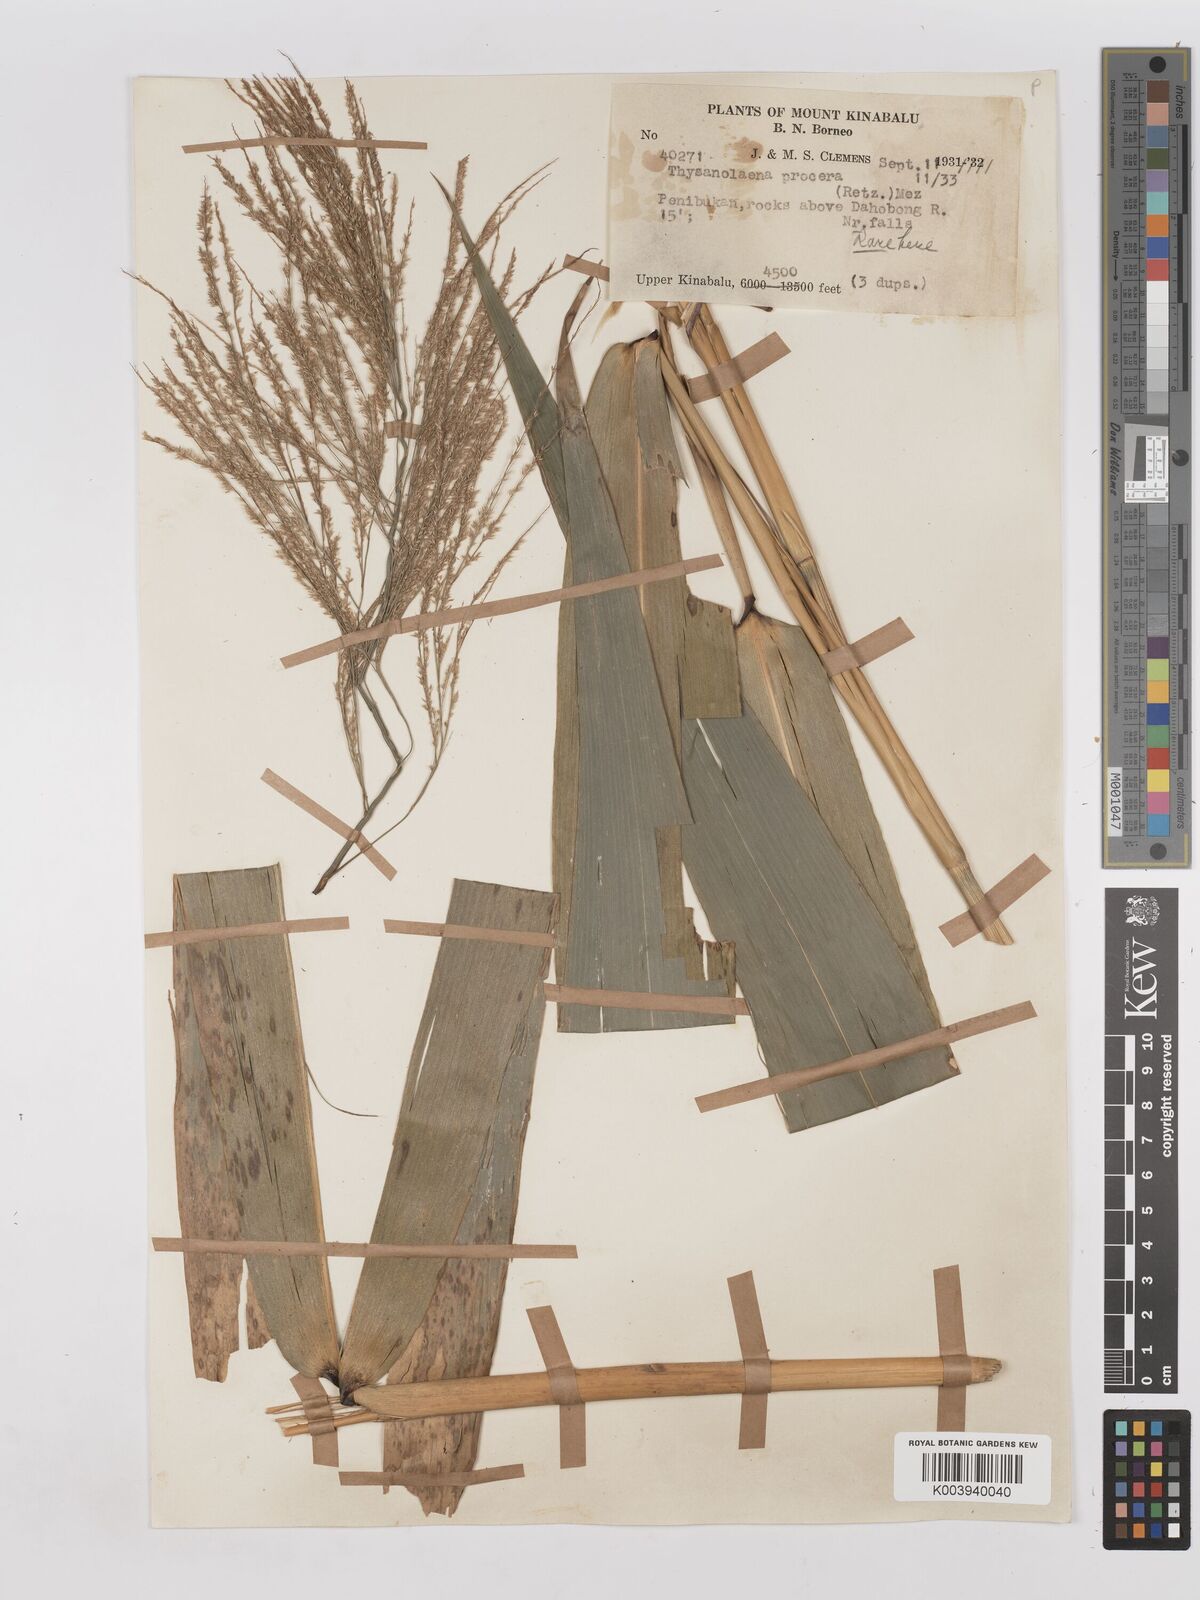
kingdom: Plantae
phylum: Tracheophyta
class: Liliopsida
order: Poales
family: Poaceae
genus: Thysanolaena
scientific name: Thysanolaena latifolia
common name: Tiger grass
